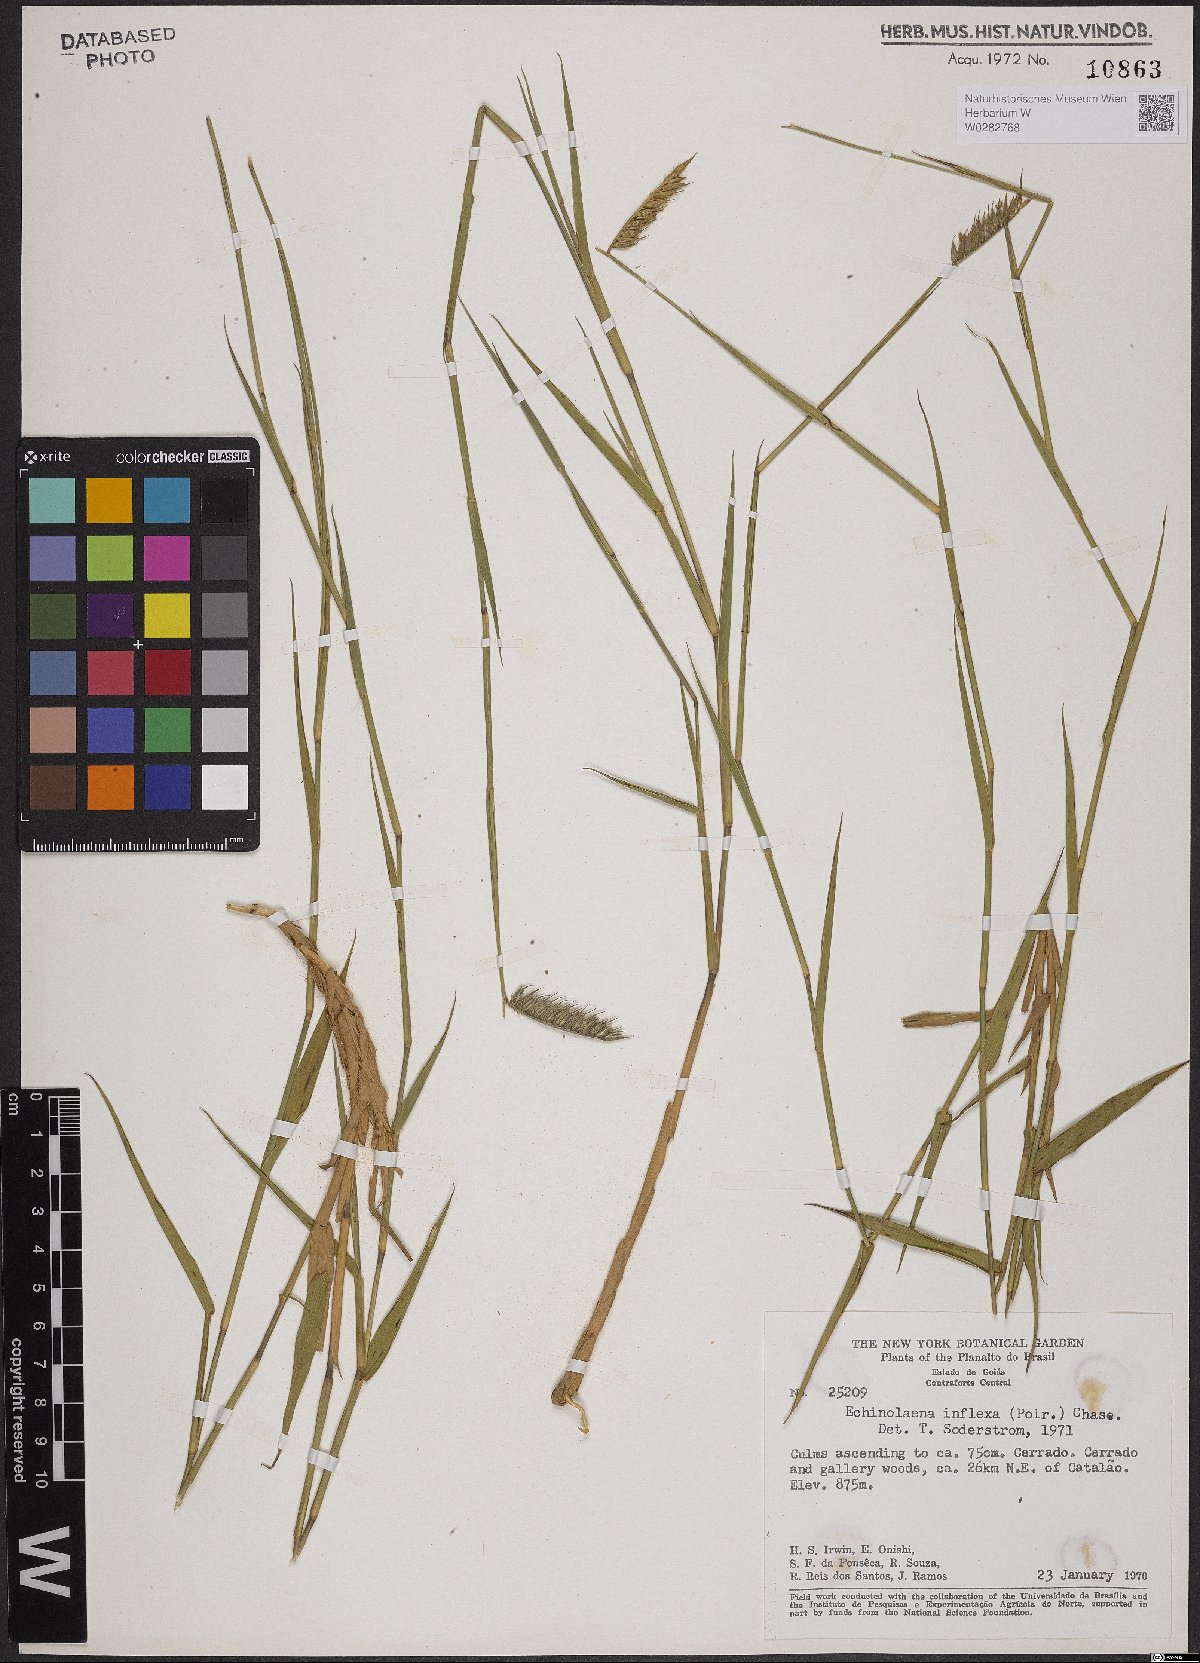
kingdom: Plantae
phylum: Tracheophyta
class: Liliopsida
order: Poales
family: Poaceae
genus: Echinolaena
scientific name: Echinolaena inflexa
